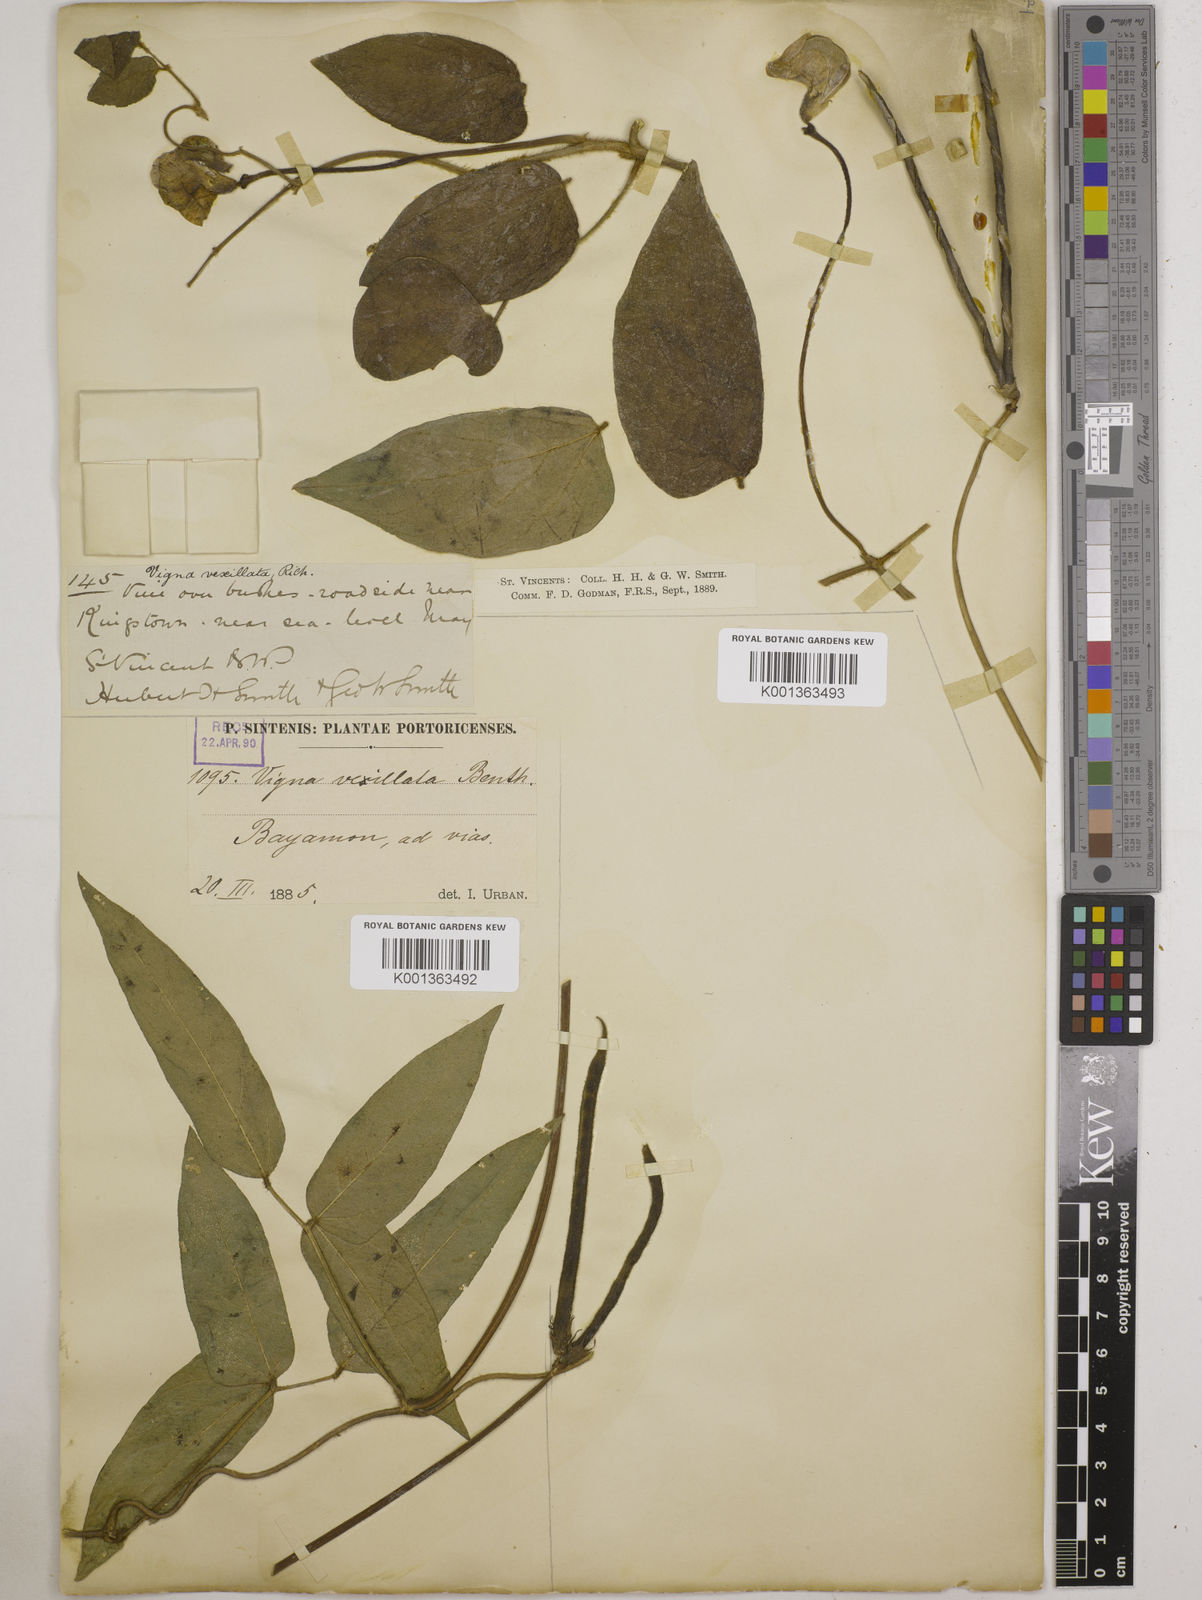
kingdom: Plantae
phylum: Tracheophyta
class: Magnoliopsida
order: Fabales
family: Fabaceae
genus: Vigna
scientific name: Vigna vexillata
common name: Zombi pea
